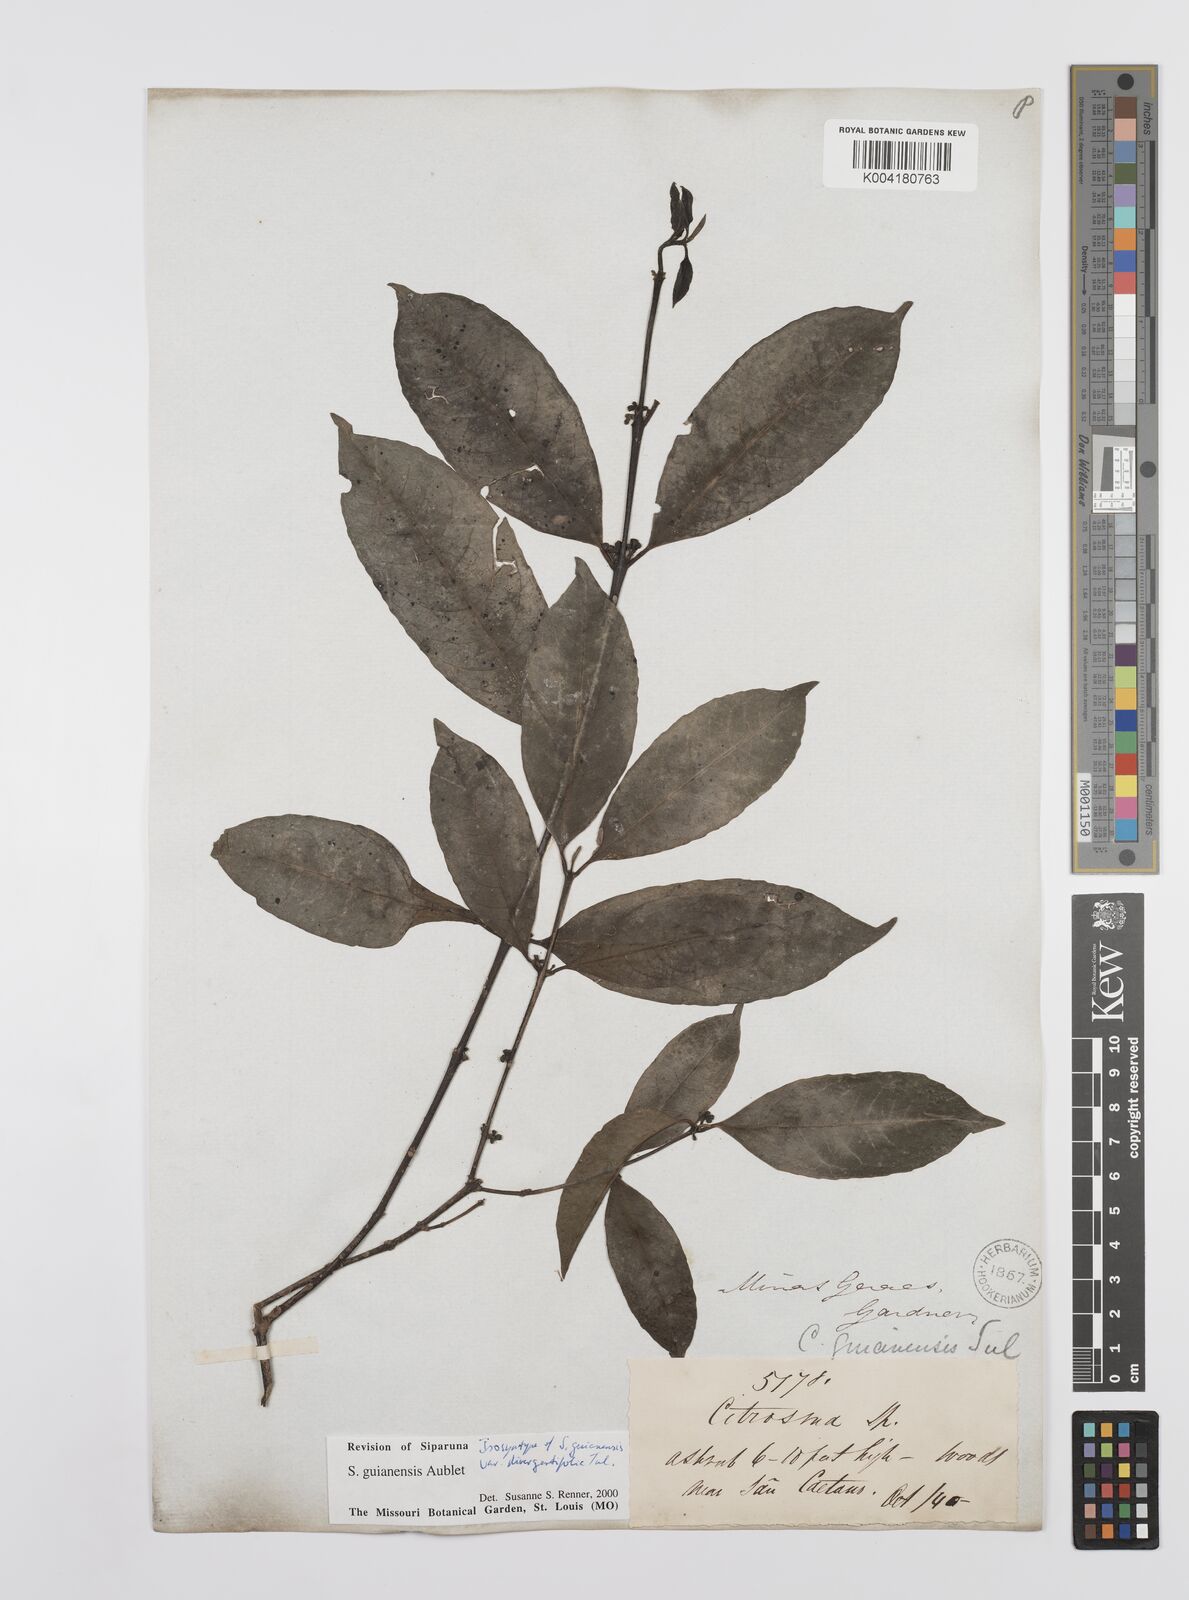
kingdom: Plantae
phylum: Tracheophyta
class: Magnoliopsida
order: Laurales
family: Siparunaceae
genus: Siparuna
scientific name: Siparuna guianensis
